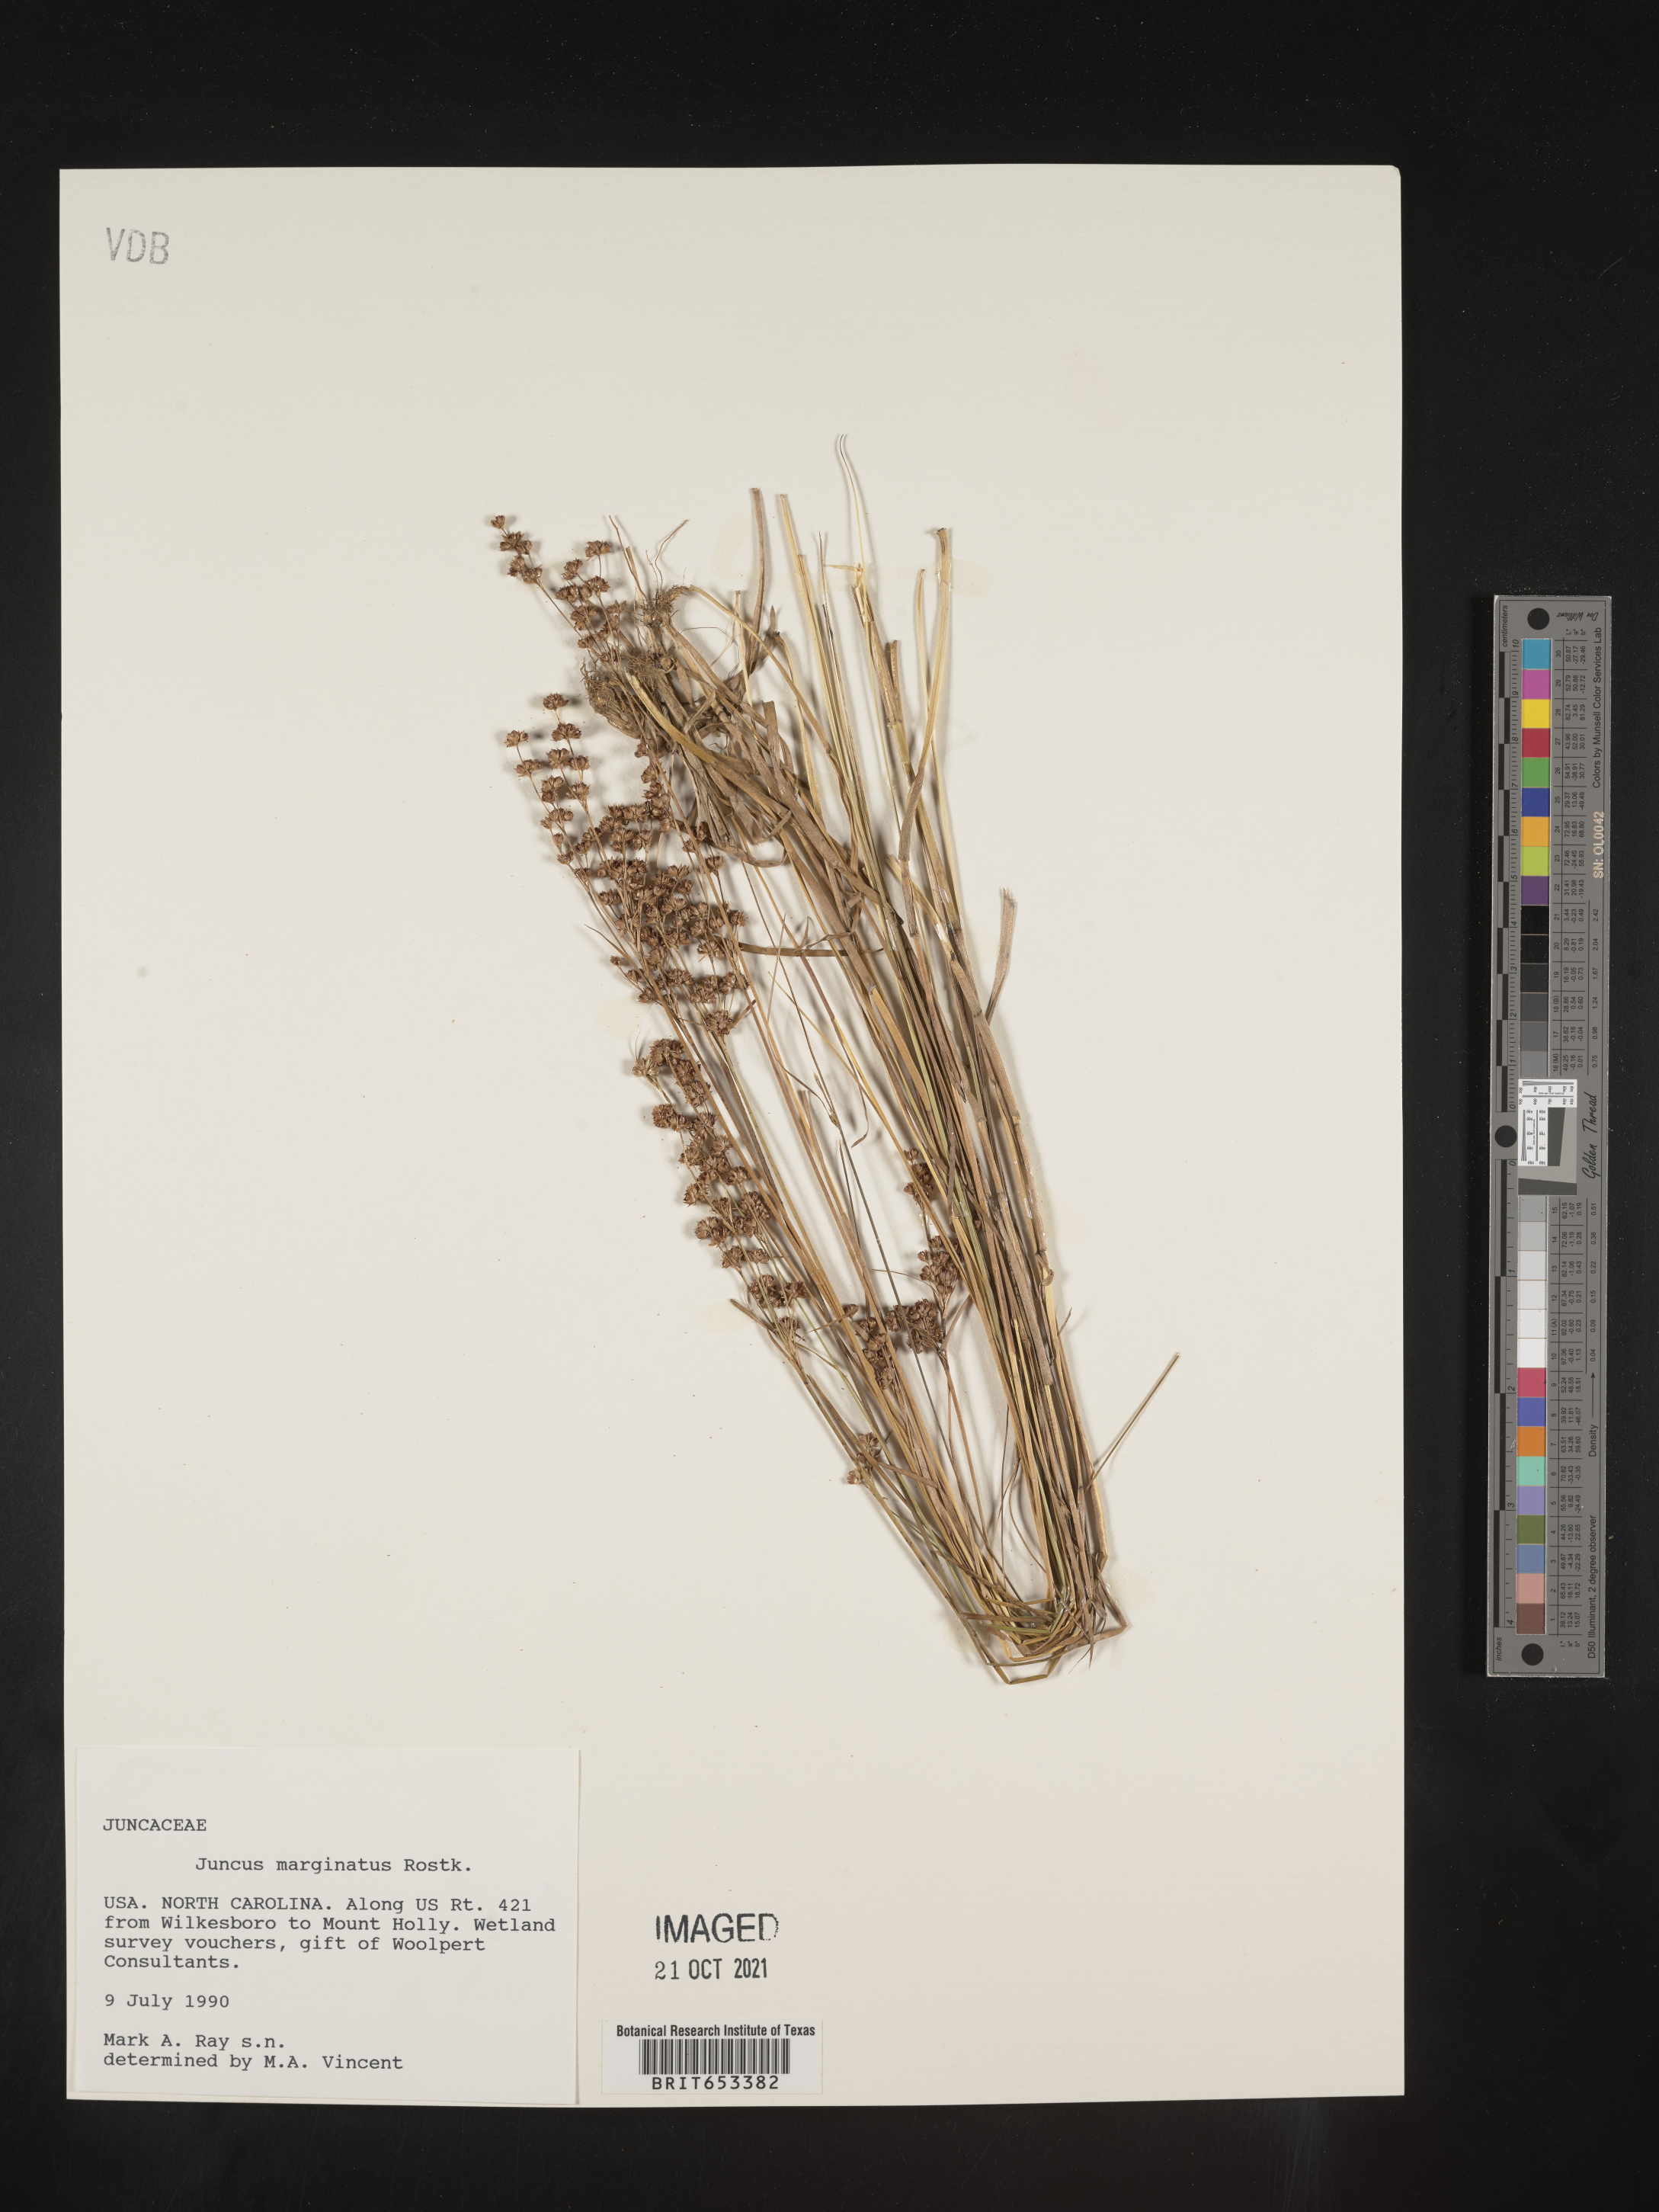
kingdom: Plantae
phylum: Tracheophyta
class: Liliopsida
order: Poales
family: Juncaceae
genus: Juncus
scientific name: Juncus marginatus
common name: Grass-leaf rush
